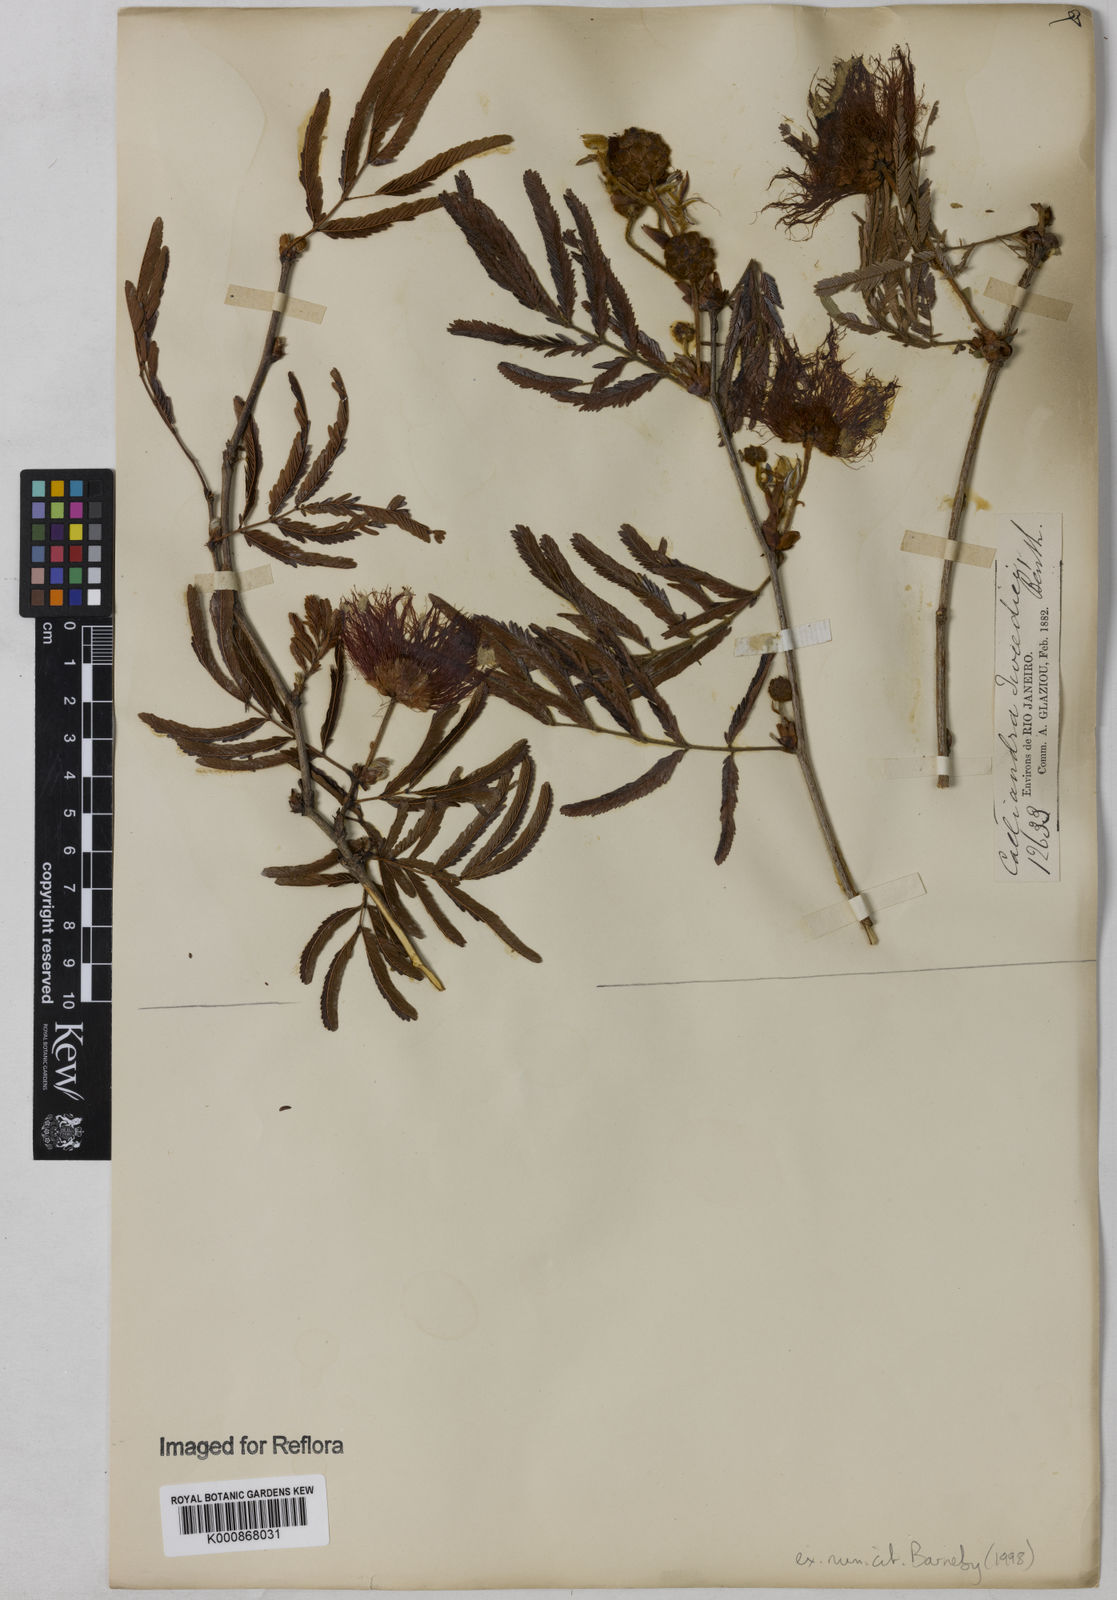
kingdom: Plantae
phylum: Tracheophyta
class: Magnoliopsida
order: Fabales
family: Fabaceae
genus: Calliandra
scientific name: Calliandra tweediei
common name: Mexican flamebush
